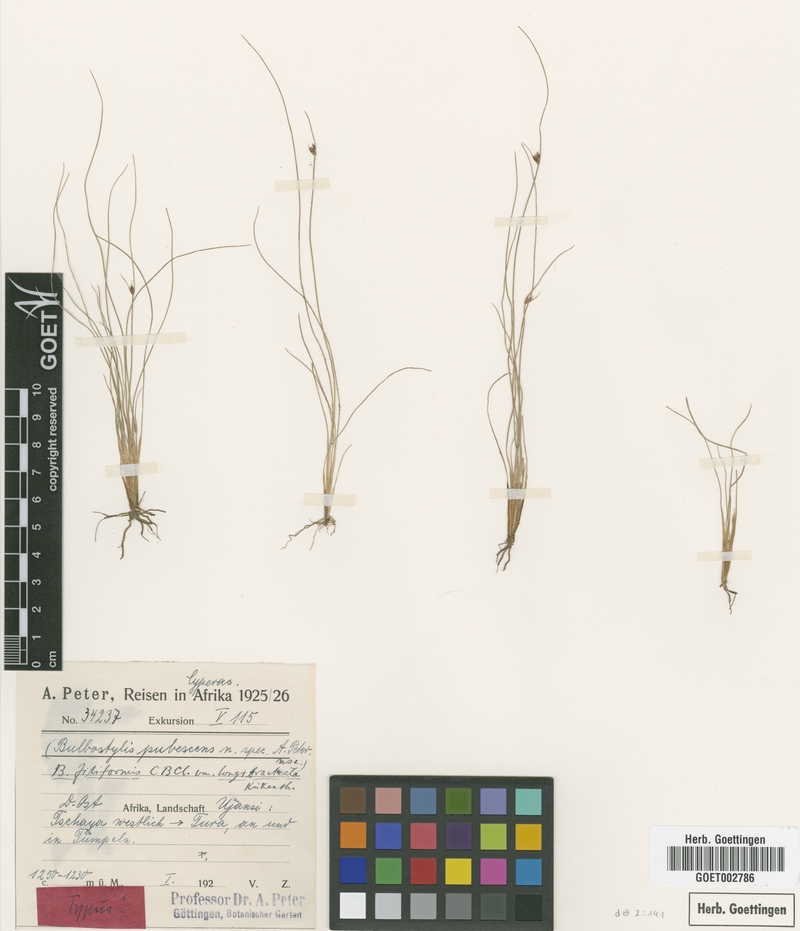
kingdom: Plantae
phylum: Tracheophyta
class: Liliopsida
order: Poales
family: Cyperaceae
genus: Bulbostylis
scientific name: Bulbostylis pubescens
